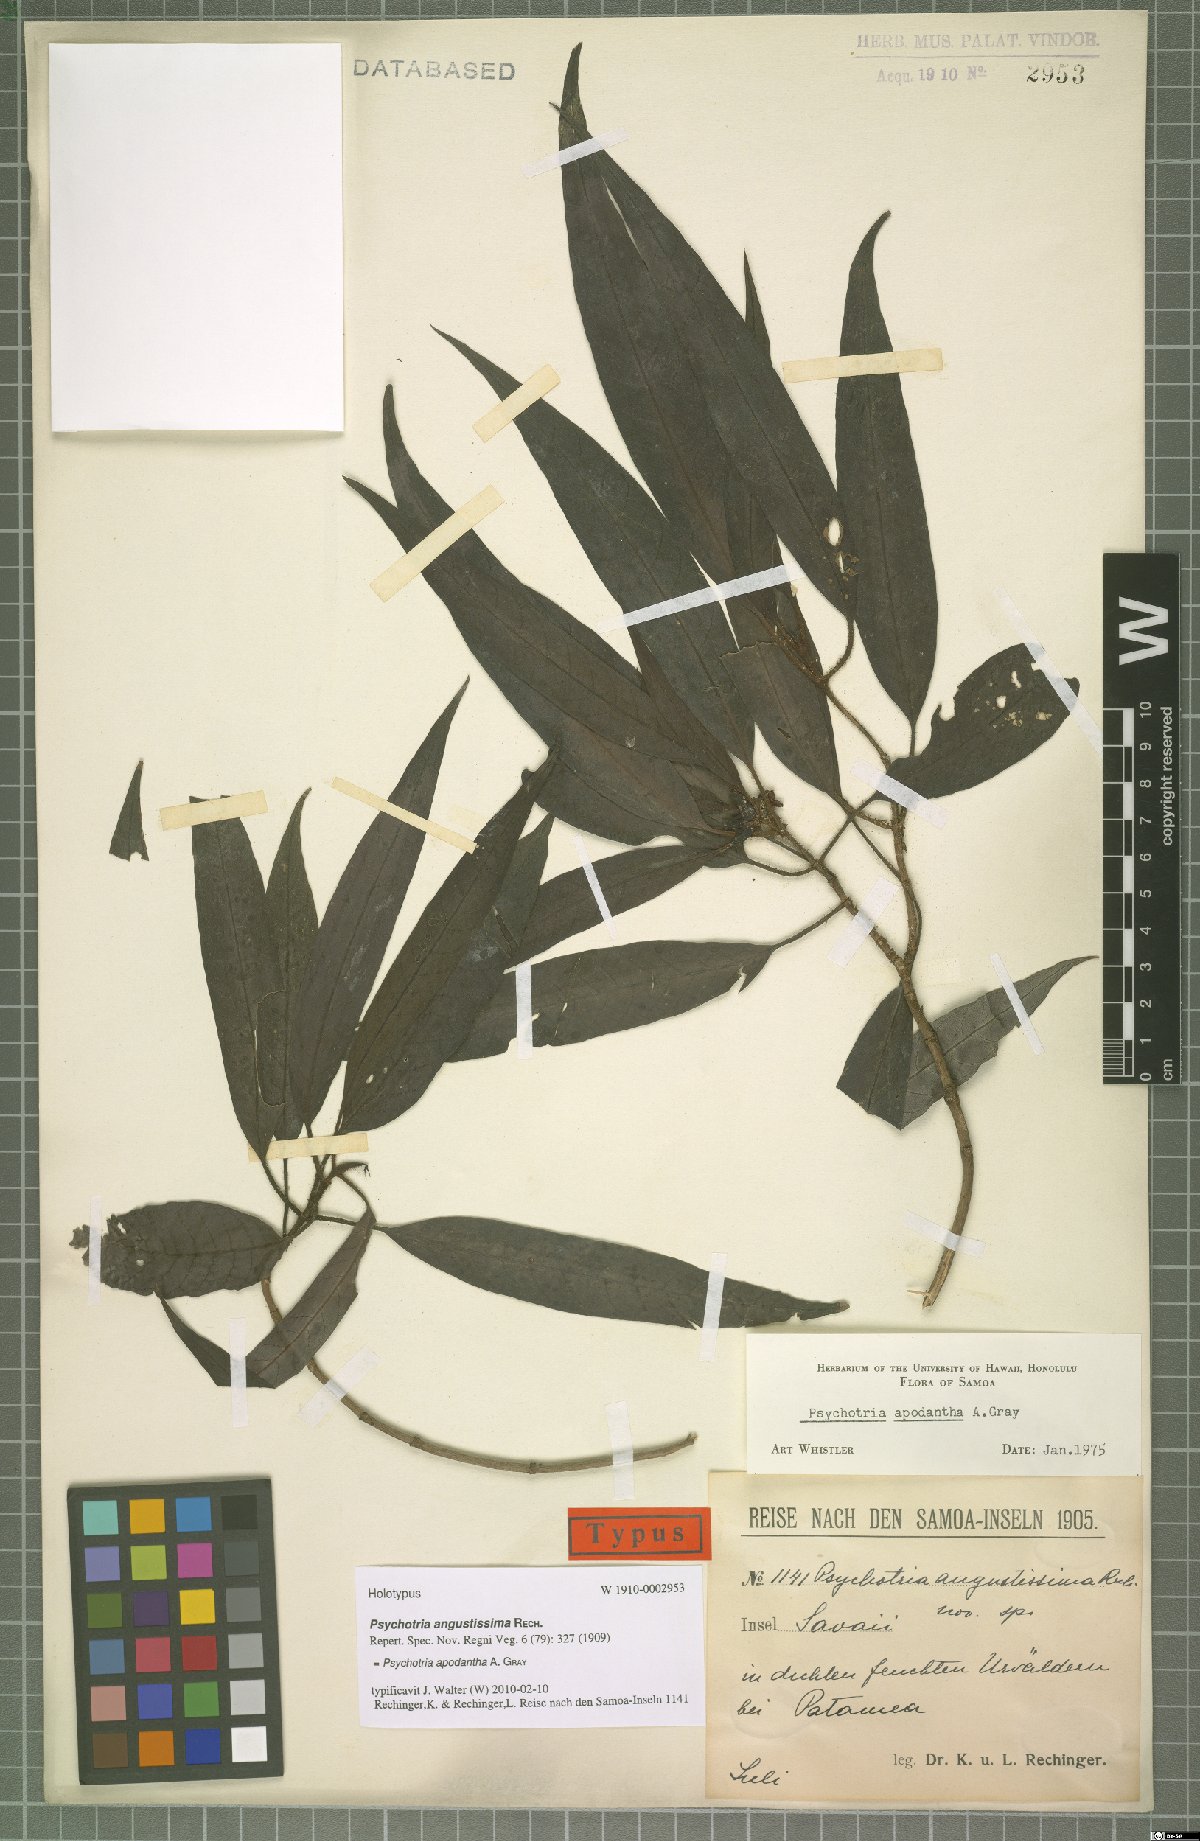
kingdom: Plantae
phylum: Tracheophyta
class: Magnoliopsida
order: Gentianales
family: Rubiaceae
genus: Psychotria
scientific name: Psychotria apodantha
